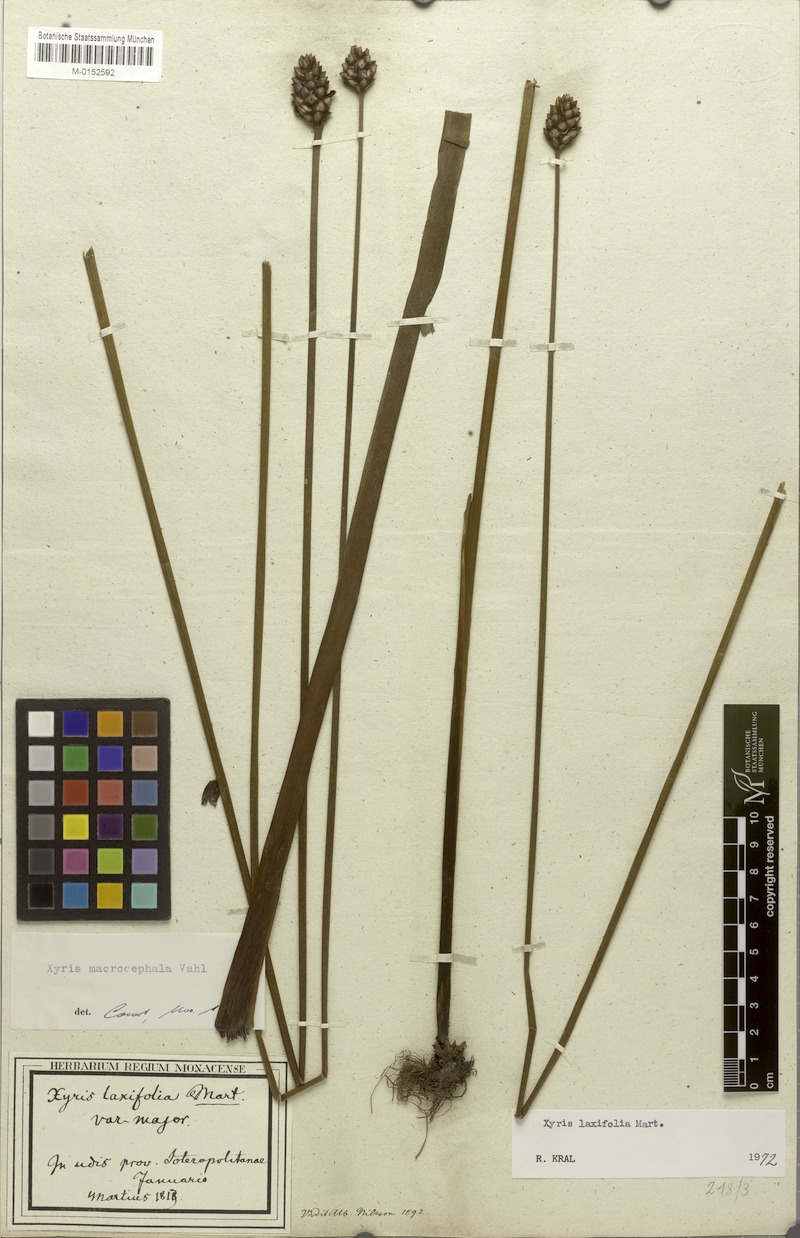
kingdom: Plantae
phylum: Tracheophyta
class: Liliopsida
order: Poales
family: Xyridaceae
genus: Xyris
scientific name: Xyris laxifolia
